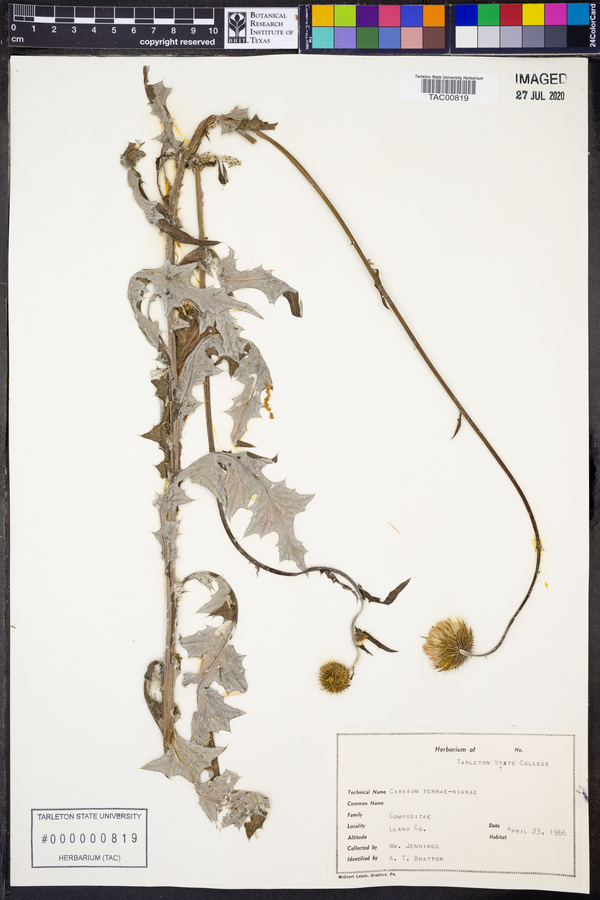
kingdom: Plantae
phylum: Tracheophyta
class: Magnoliopsida
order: Asterales
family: Asteraceae
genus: Cirsium
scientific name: Cirsium engelmannii
